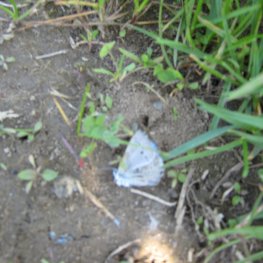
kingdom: Animalia
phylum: Arthropoda
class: Insecta
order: Lepidoptera
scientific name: Lepidoptera
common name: Butterflies
